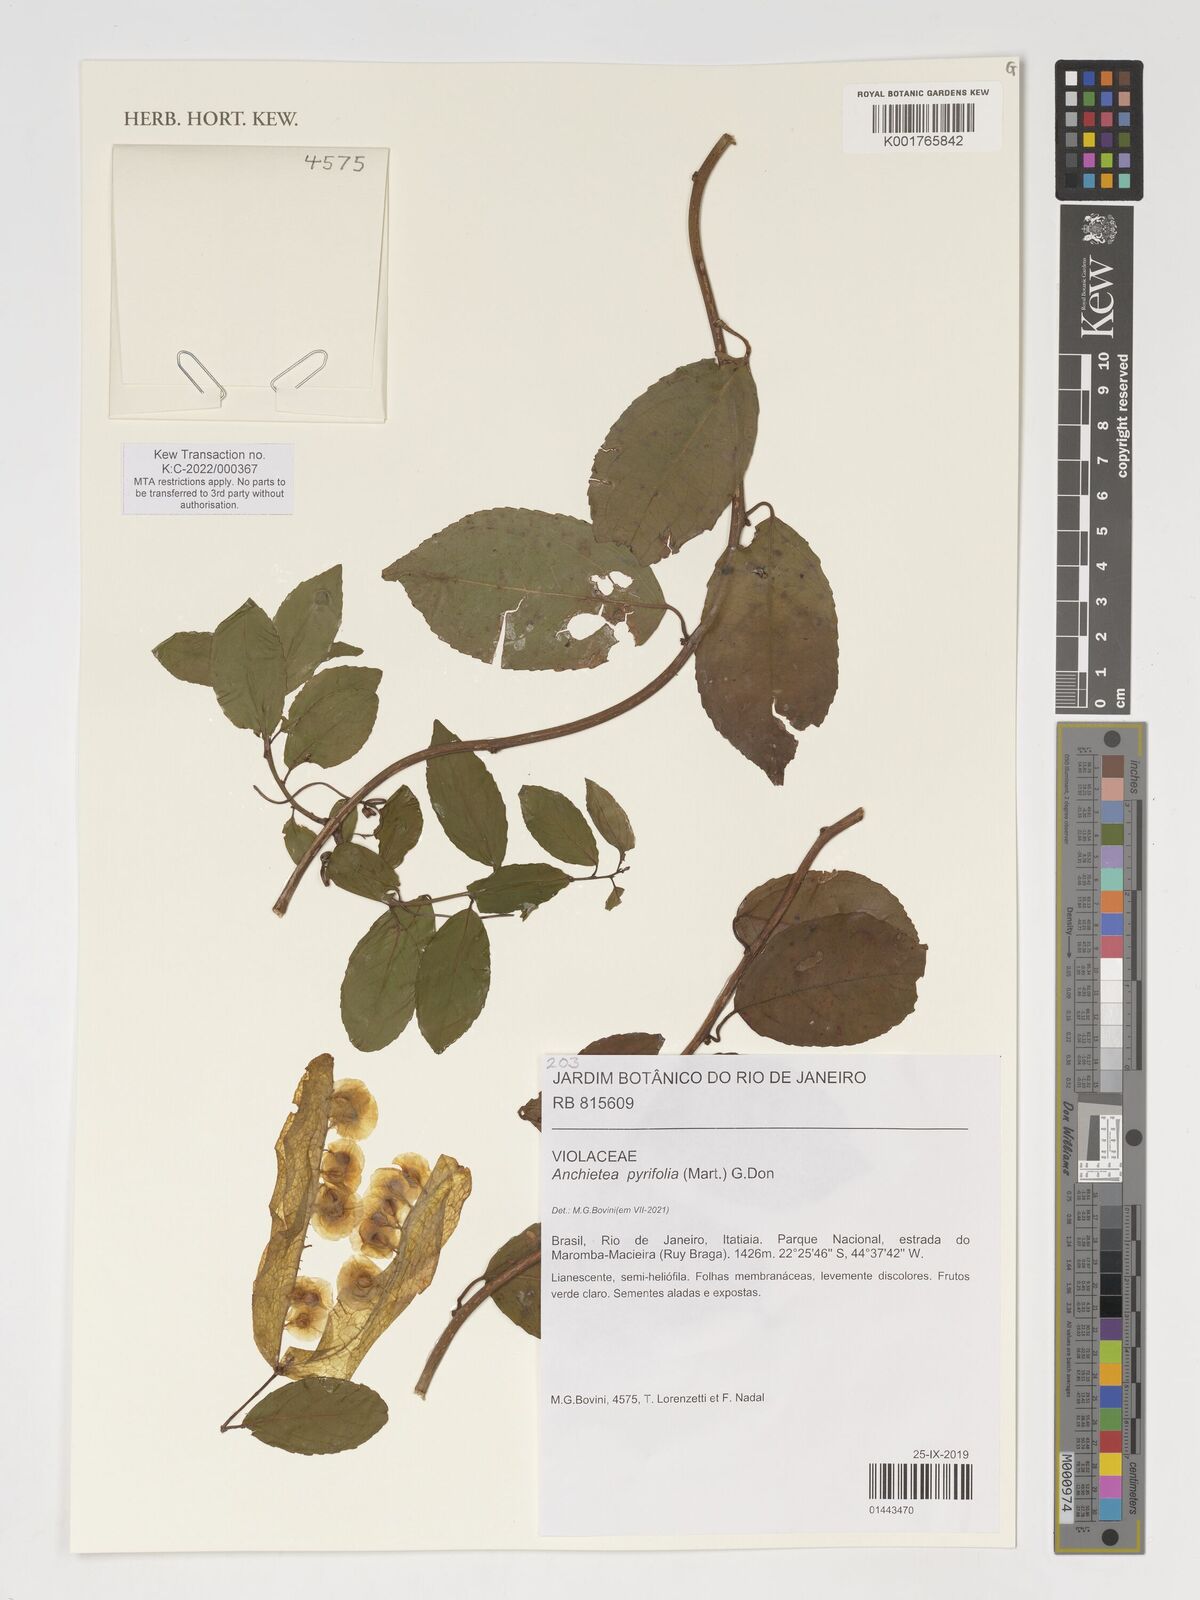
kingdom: Plantae
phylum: Tracheophyta
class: Magnoliopsida
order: Malpighiales
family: Violaceae
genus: Anchietea
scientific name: Anchietea pyrifolia
